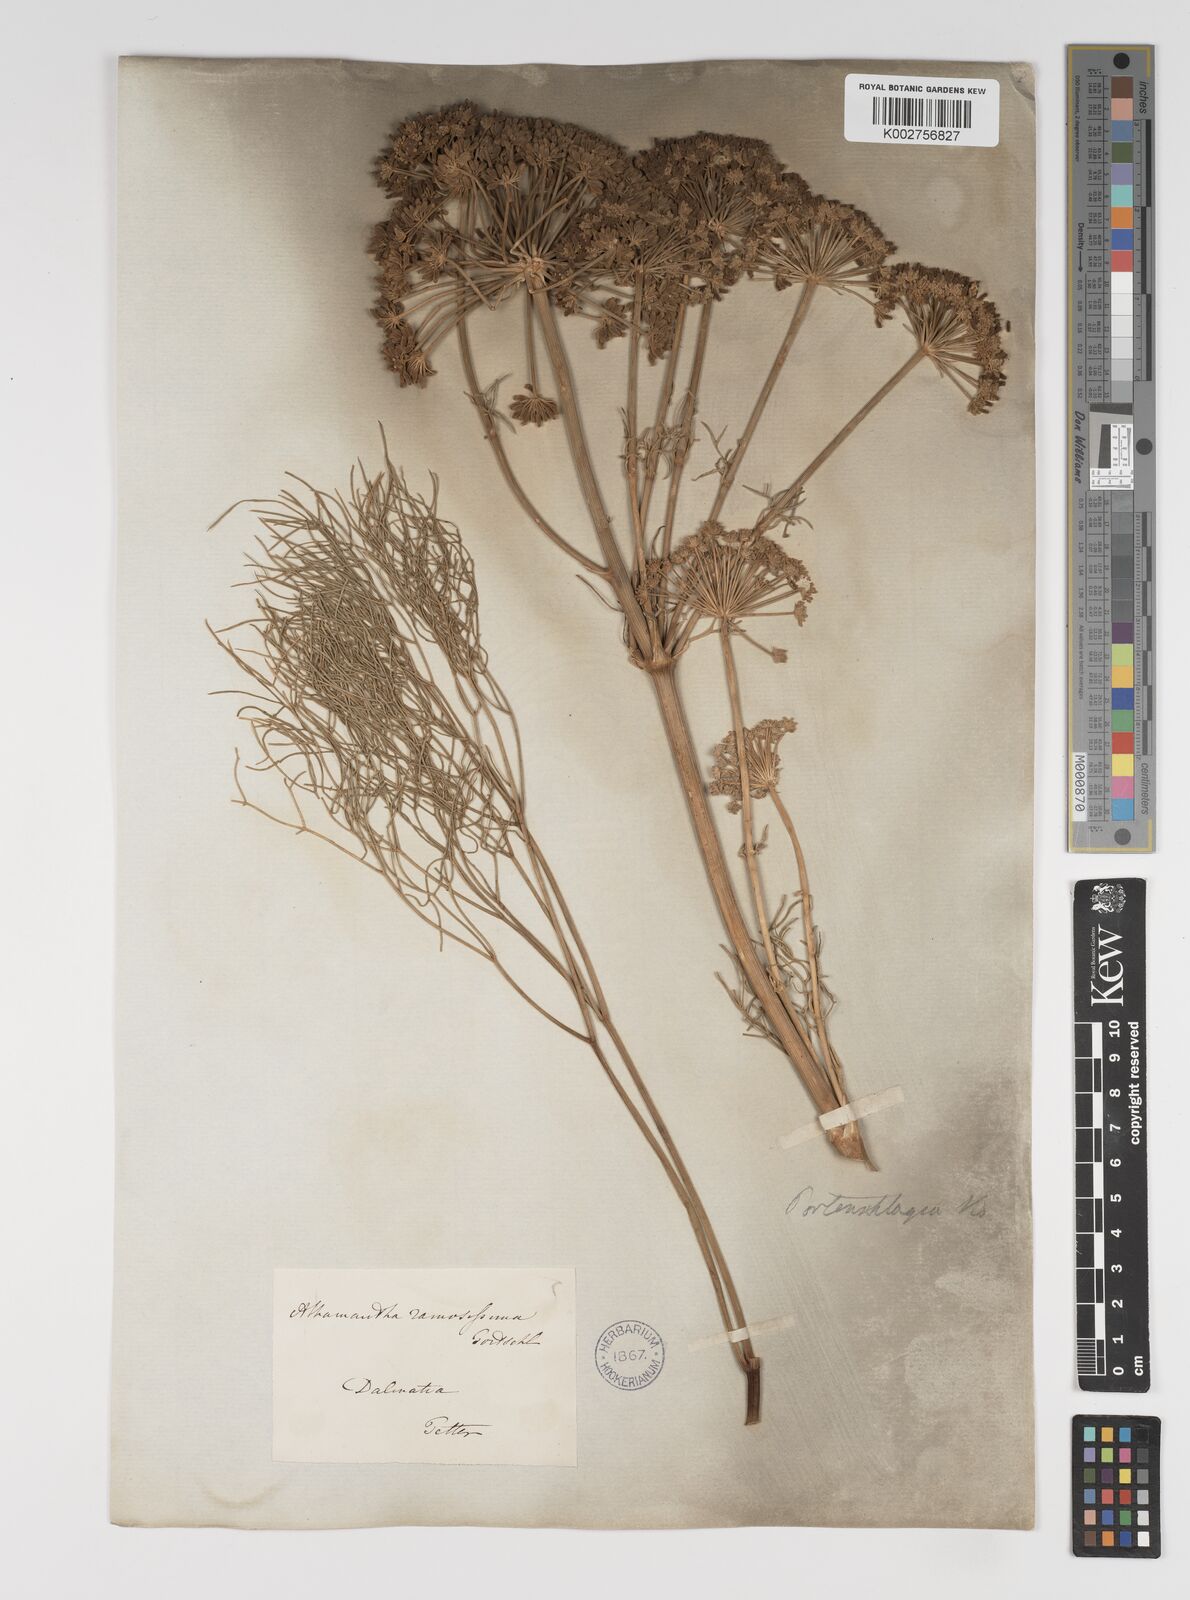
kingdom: Plantae
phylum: Tracheophyta
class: Magnoliopsida
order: Apiales
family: Apiaceae
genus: Athamanta
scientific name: Athamanta ramosissima
